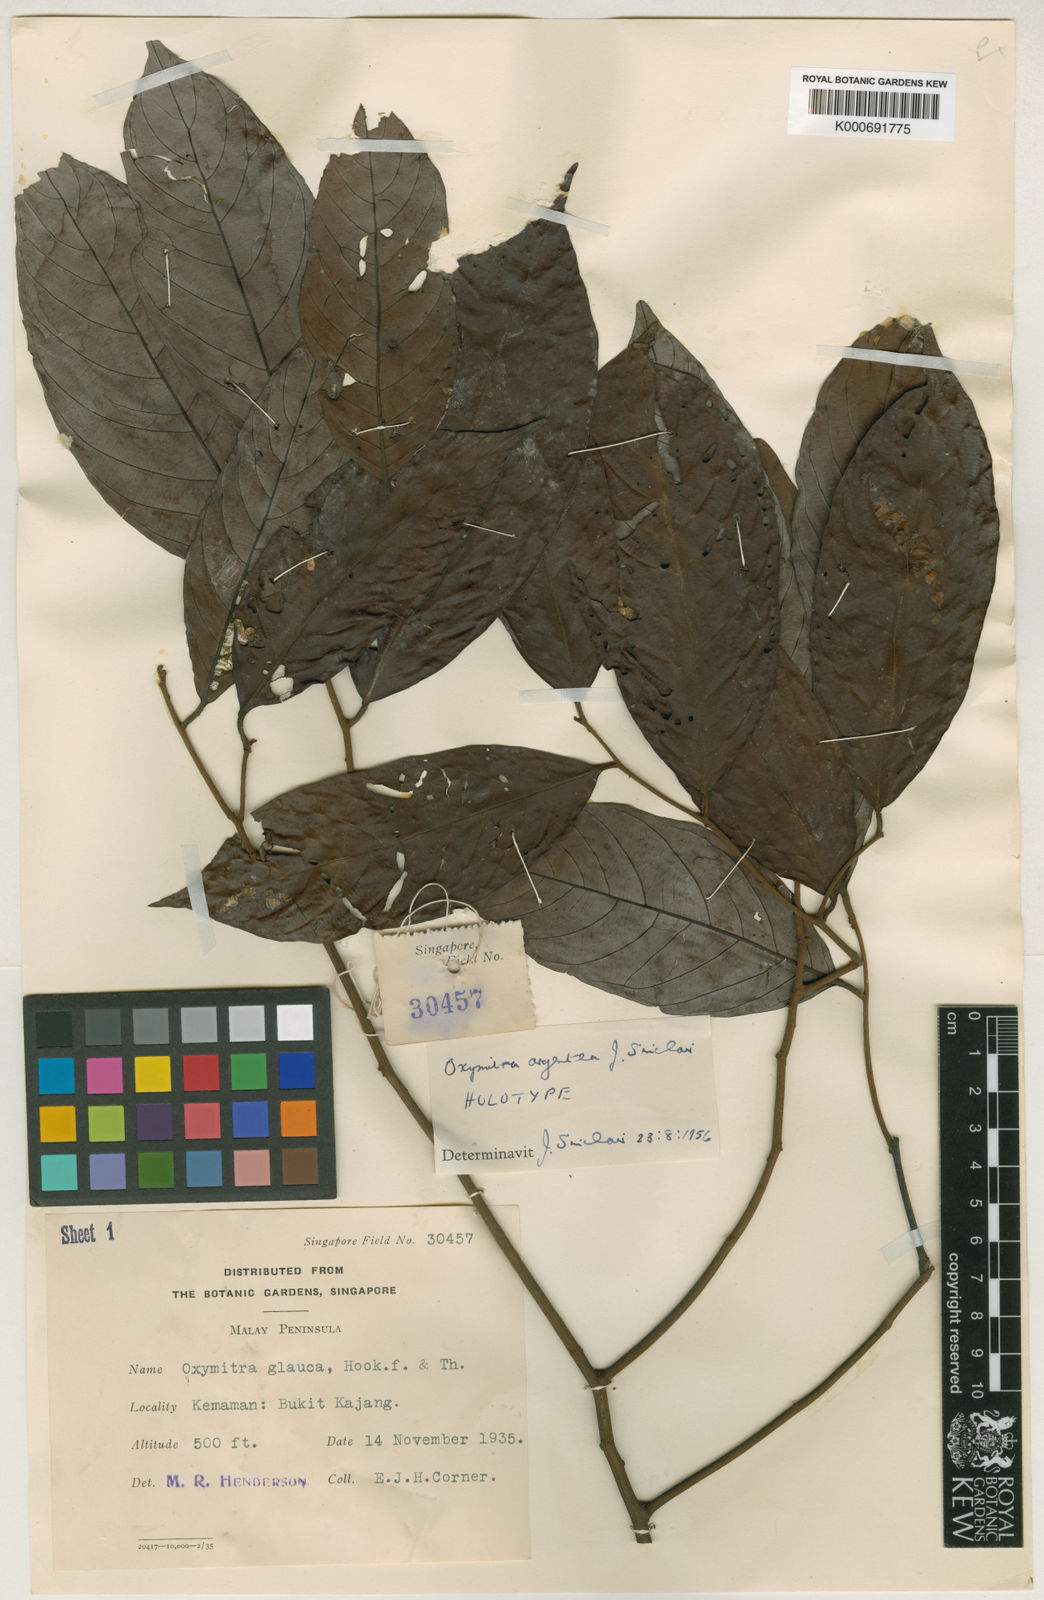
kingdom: Plantae
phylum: Tracheophyta
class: Magnoliopsida
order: Magnoliales
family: Annonaceae
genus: Friesodielsia
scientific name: Friesodielsia glauca
